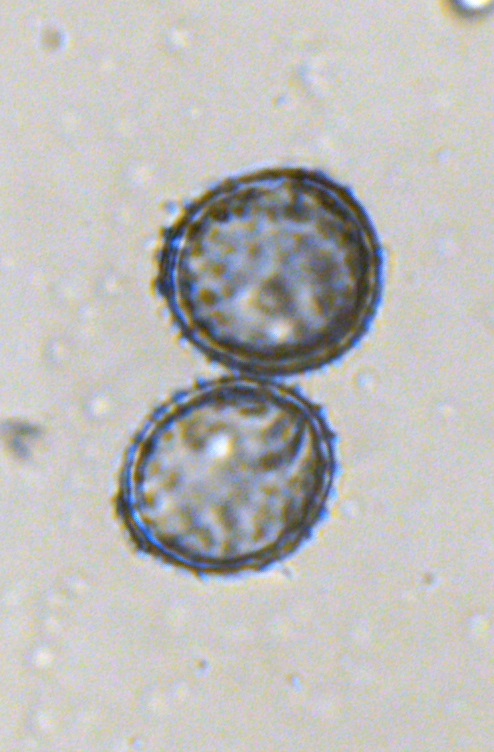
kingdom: Fungi
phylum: Basidiomycota
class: Pucciniomycetes
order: Pucciniales
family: Pucciniaceae
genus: Puccinia
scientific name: Puccinia tanaceti
